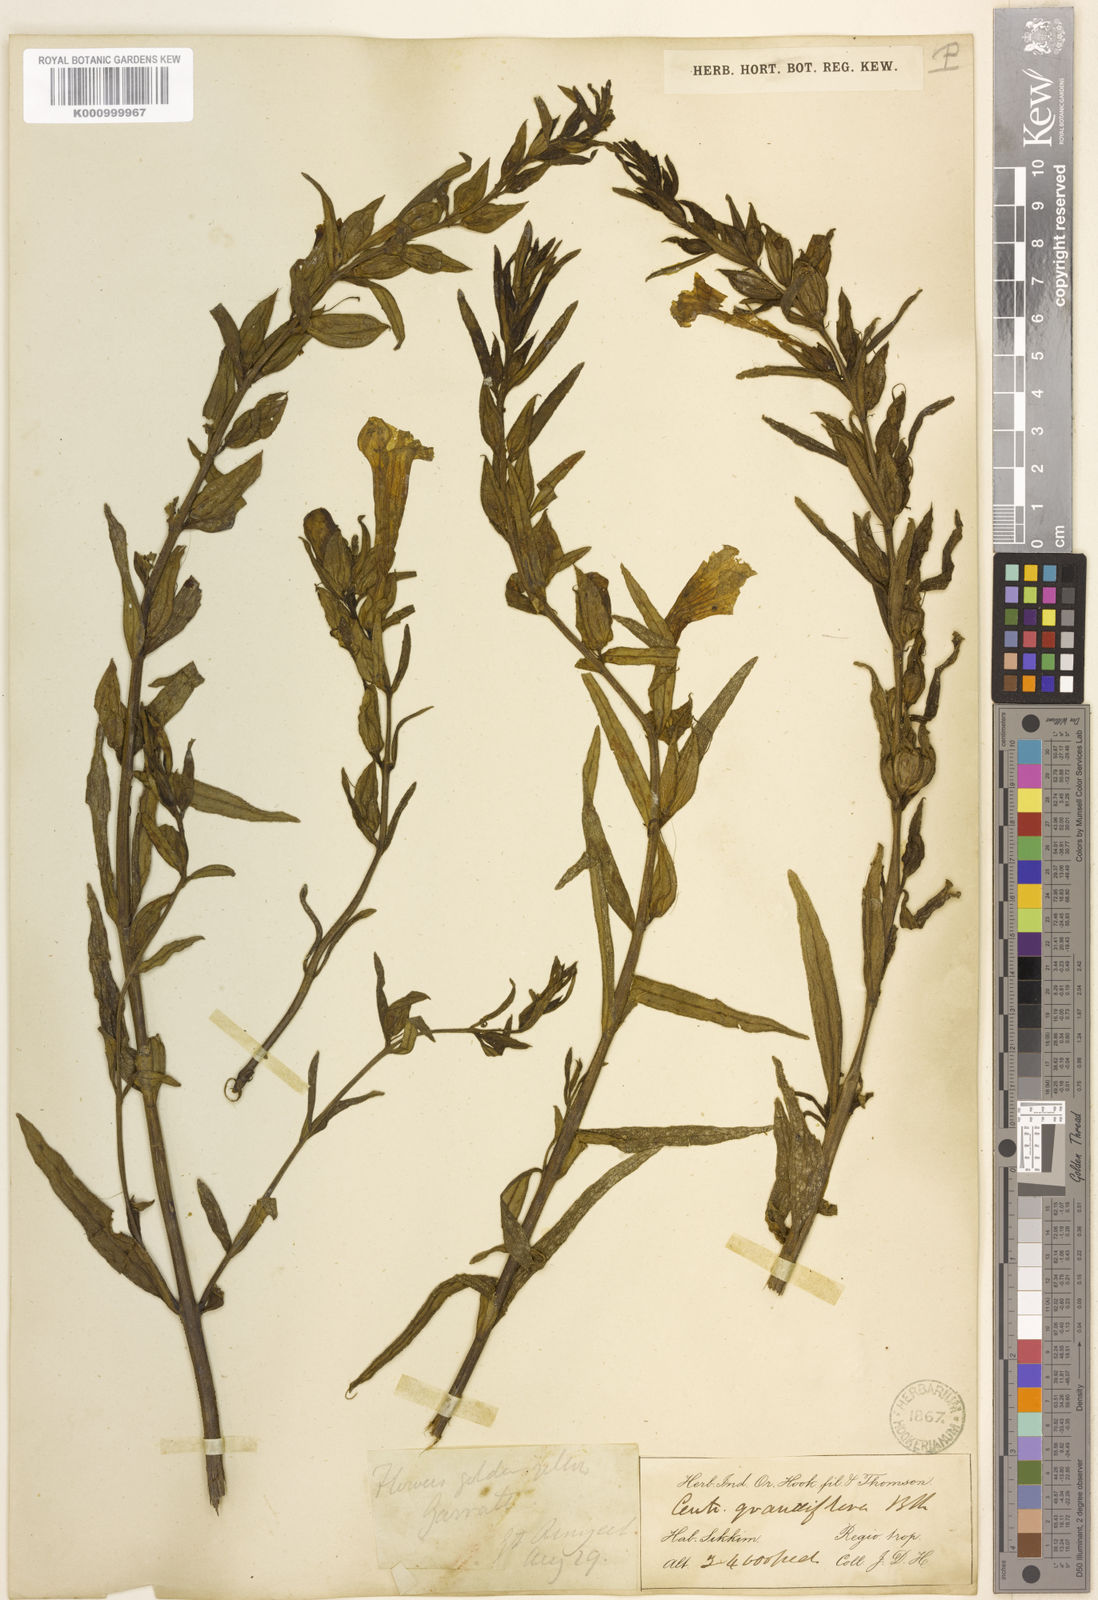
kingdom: Plantae
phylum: Tracheophyta
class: Magnoliopsida
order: Lamiales
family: Orobanchaceae
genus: Centranthera
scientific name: Centranthera grandiflora
